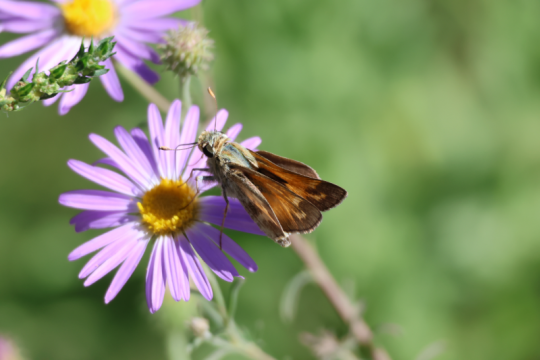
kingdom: Animalia
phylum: Arthropoda
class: Insecta
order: Lepidoptera
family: Hesperiidae
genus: Atalopedes
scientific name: Atalopedes campestris
